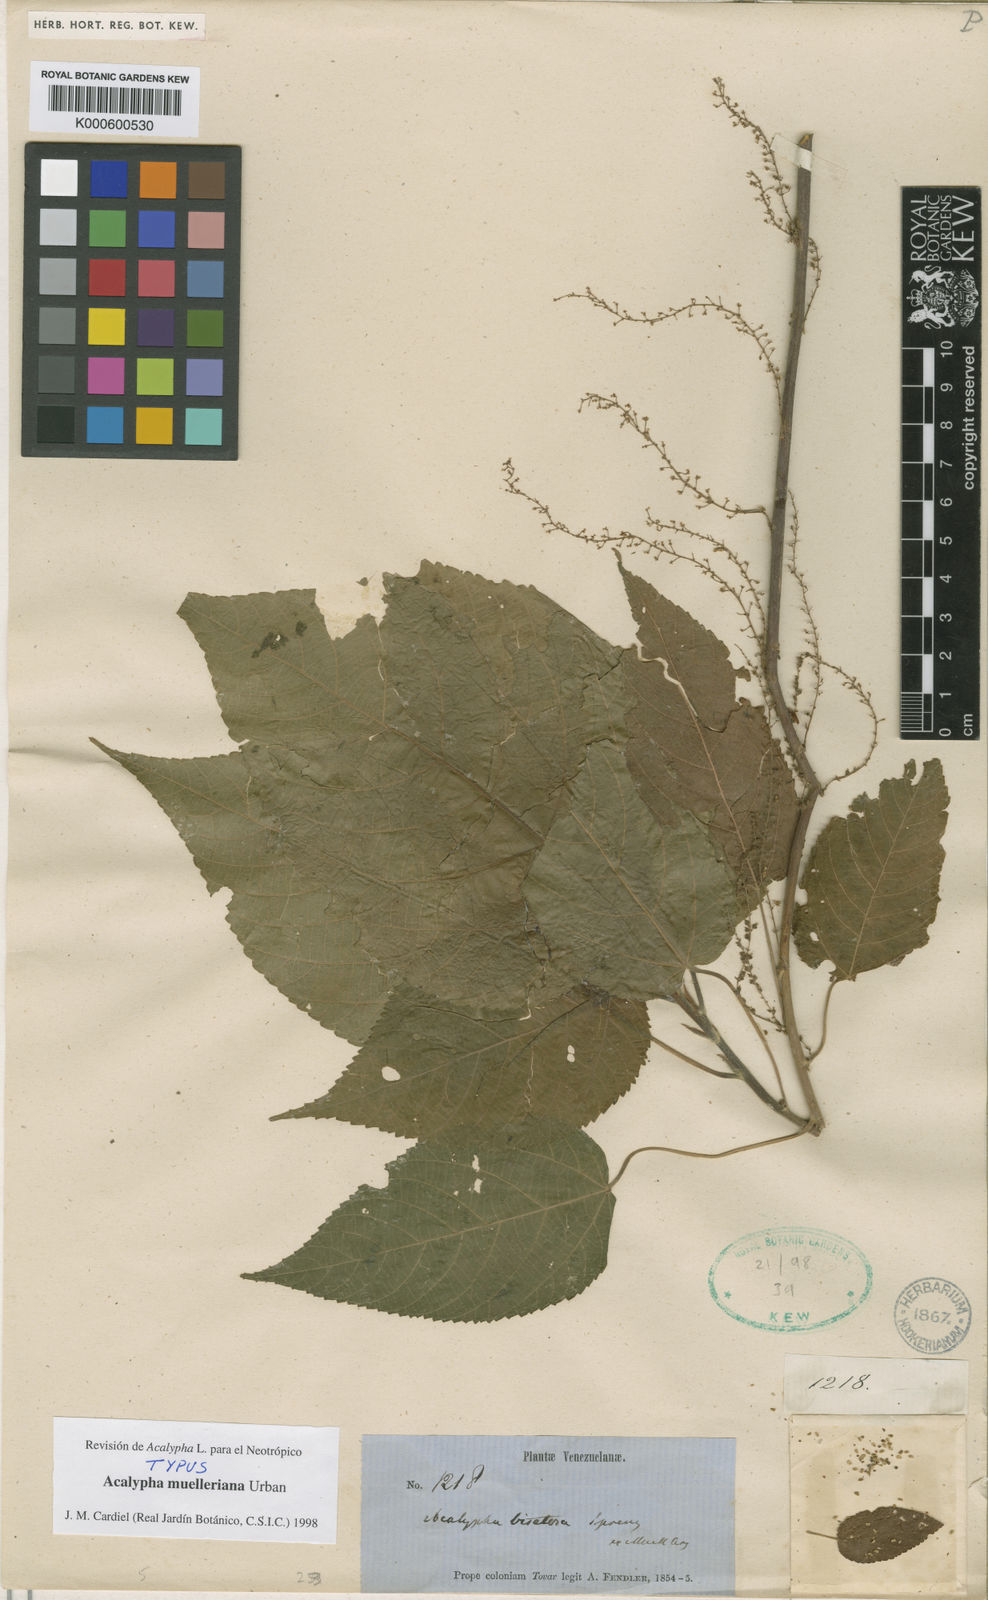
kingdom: Plantae
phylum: Tracheophyta
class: Magnoliopsida
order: Malpighiales
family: Euphorbiaceae
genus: Acalypha
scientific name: Acalypha muelleriana
